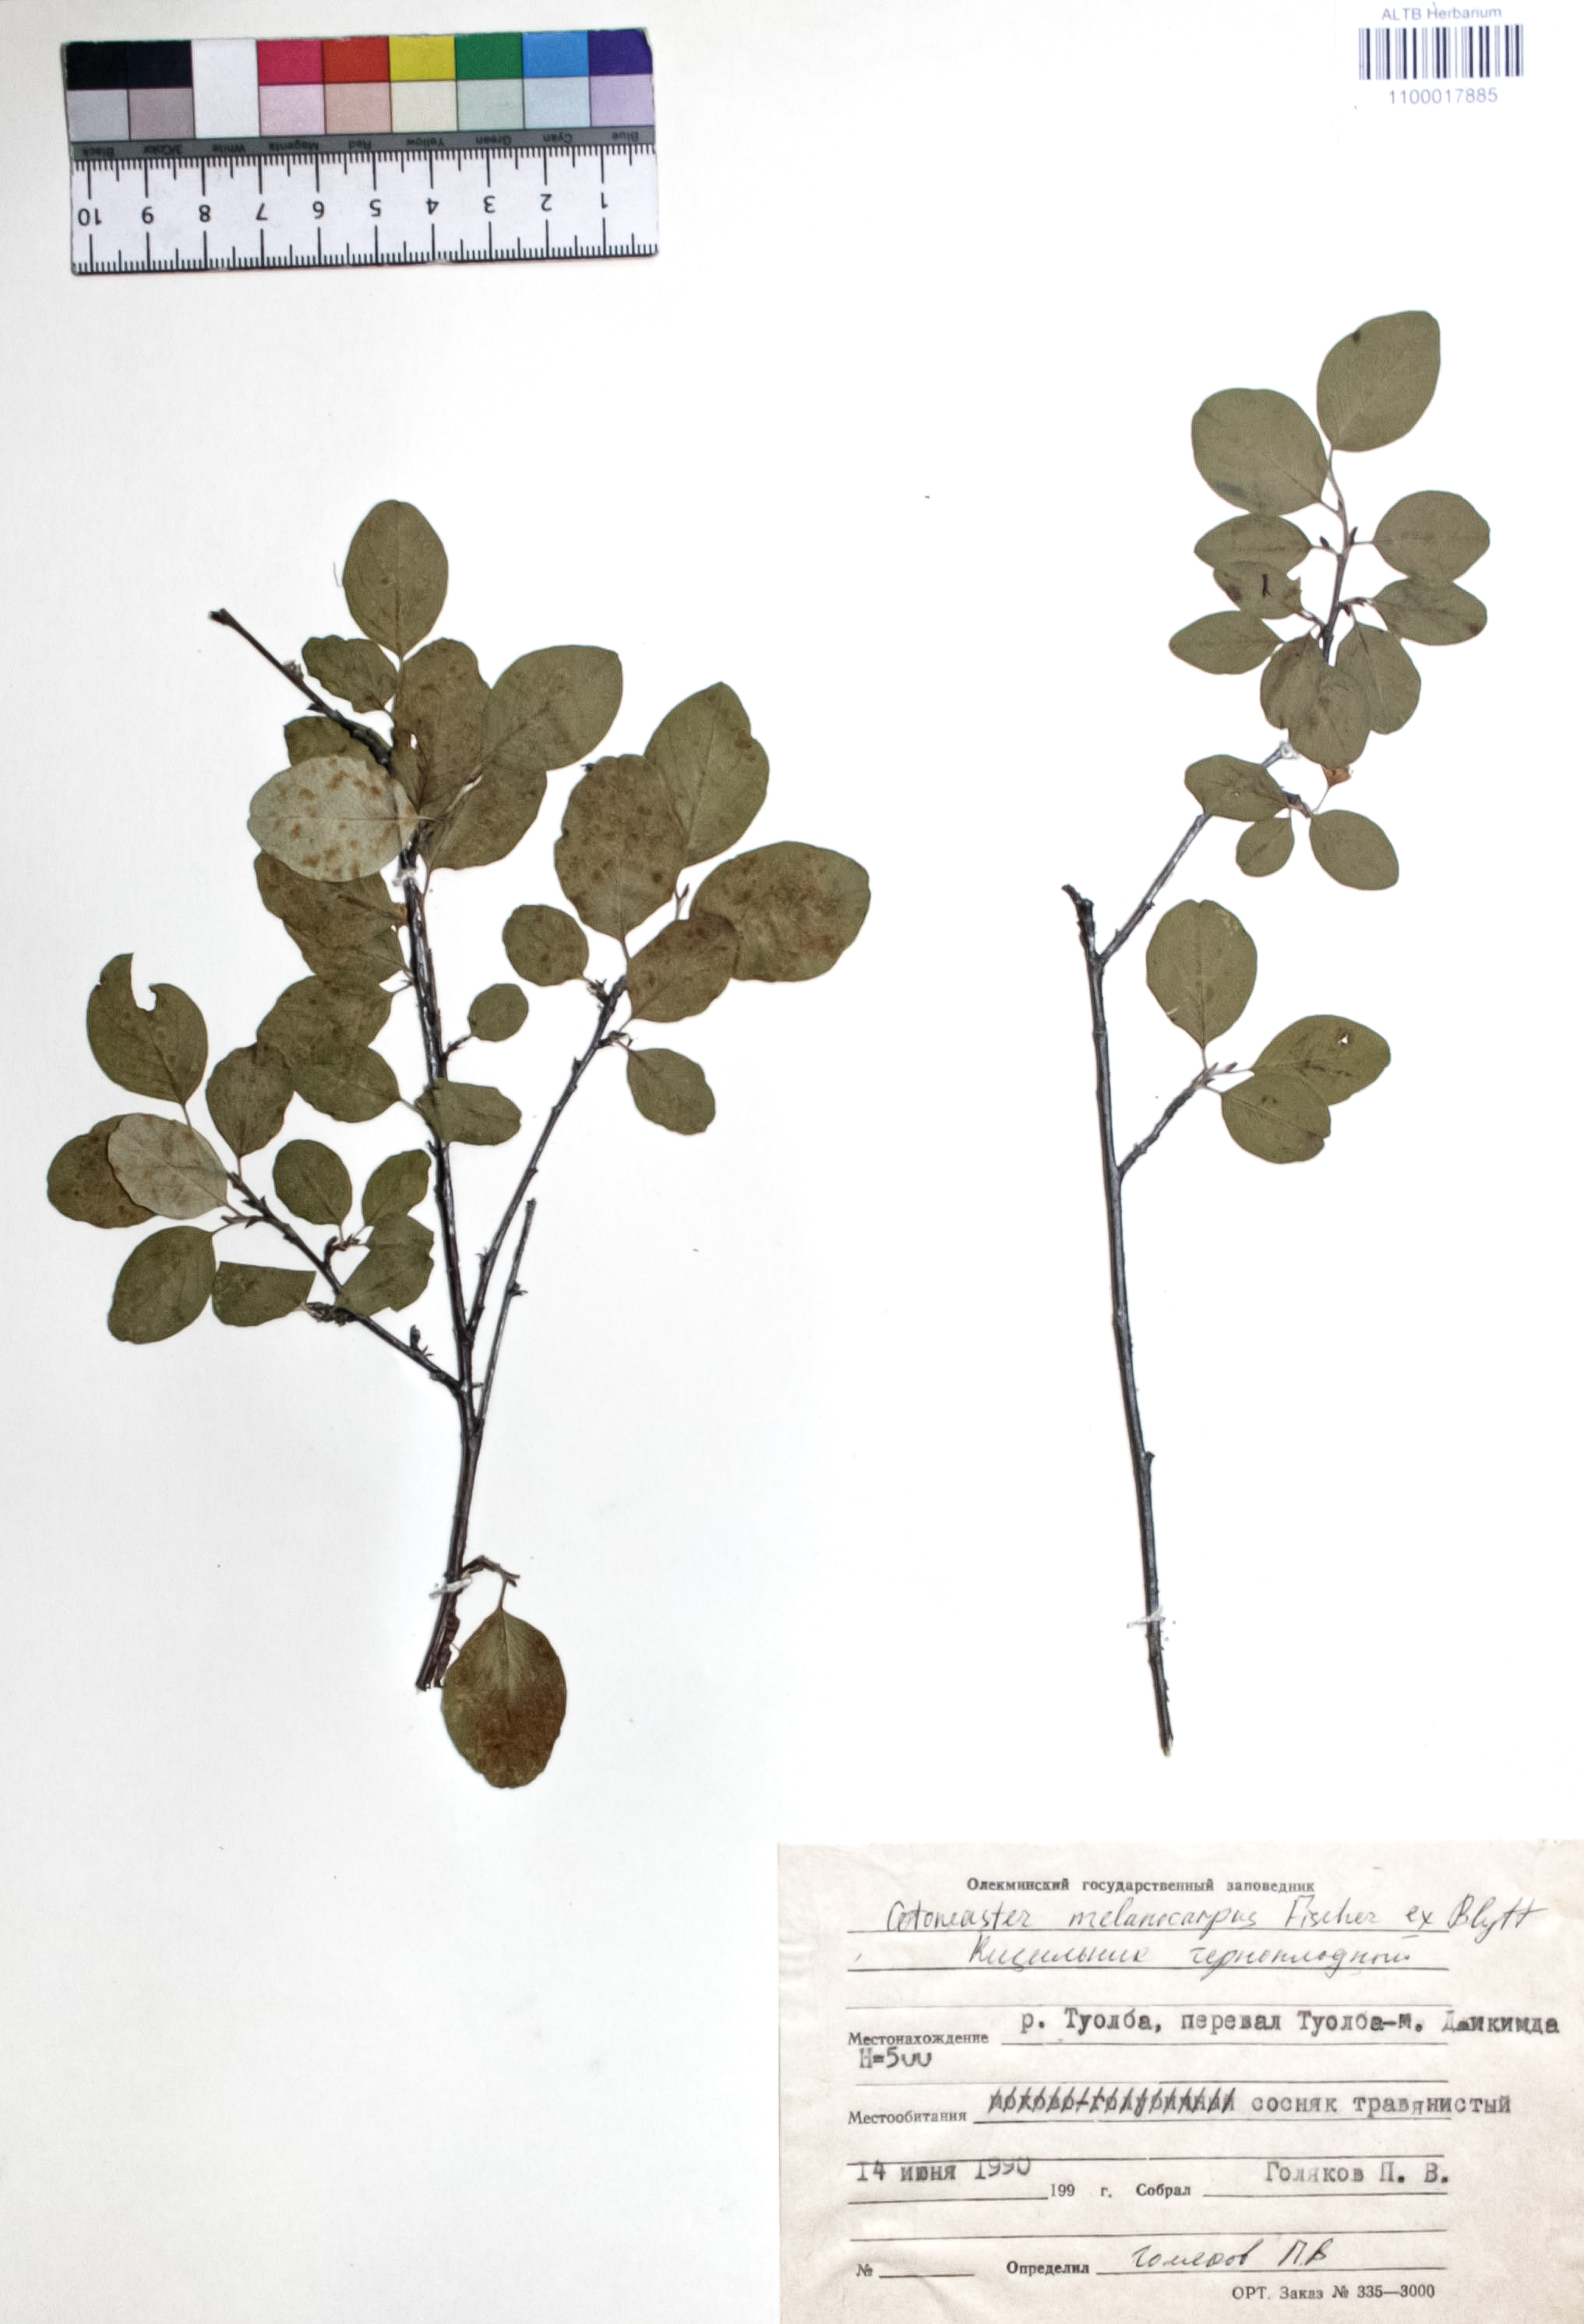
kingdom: Plantae
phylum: Tracheophyta
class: Magnoliopsida
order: Rosales
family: Rosaceae
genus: Cotoneaster
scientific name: Cotoneaster niger
